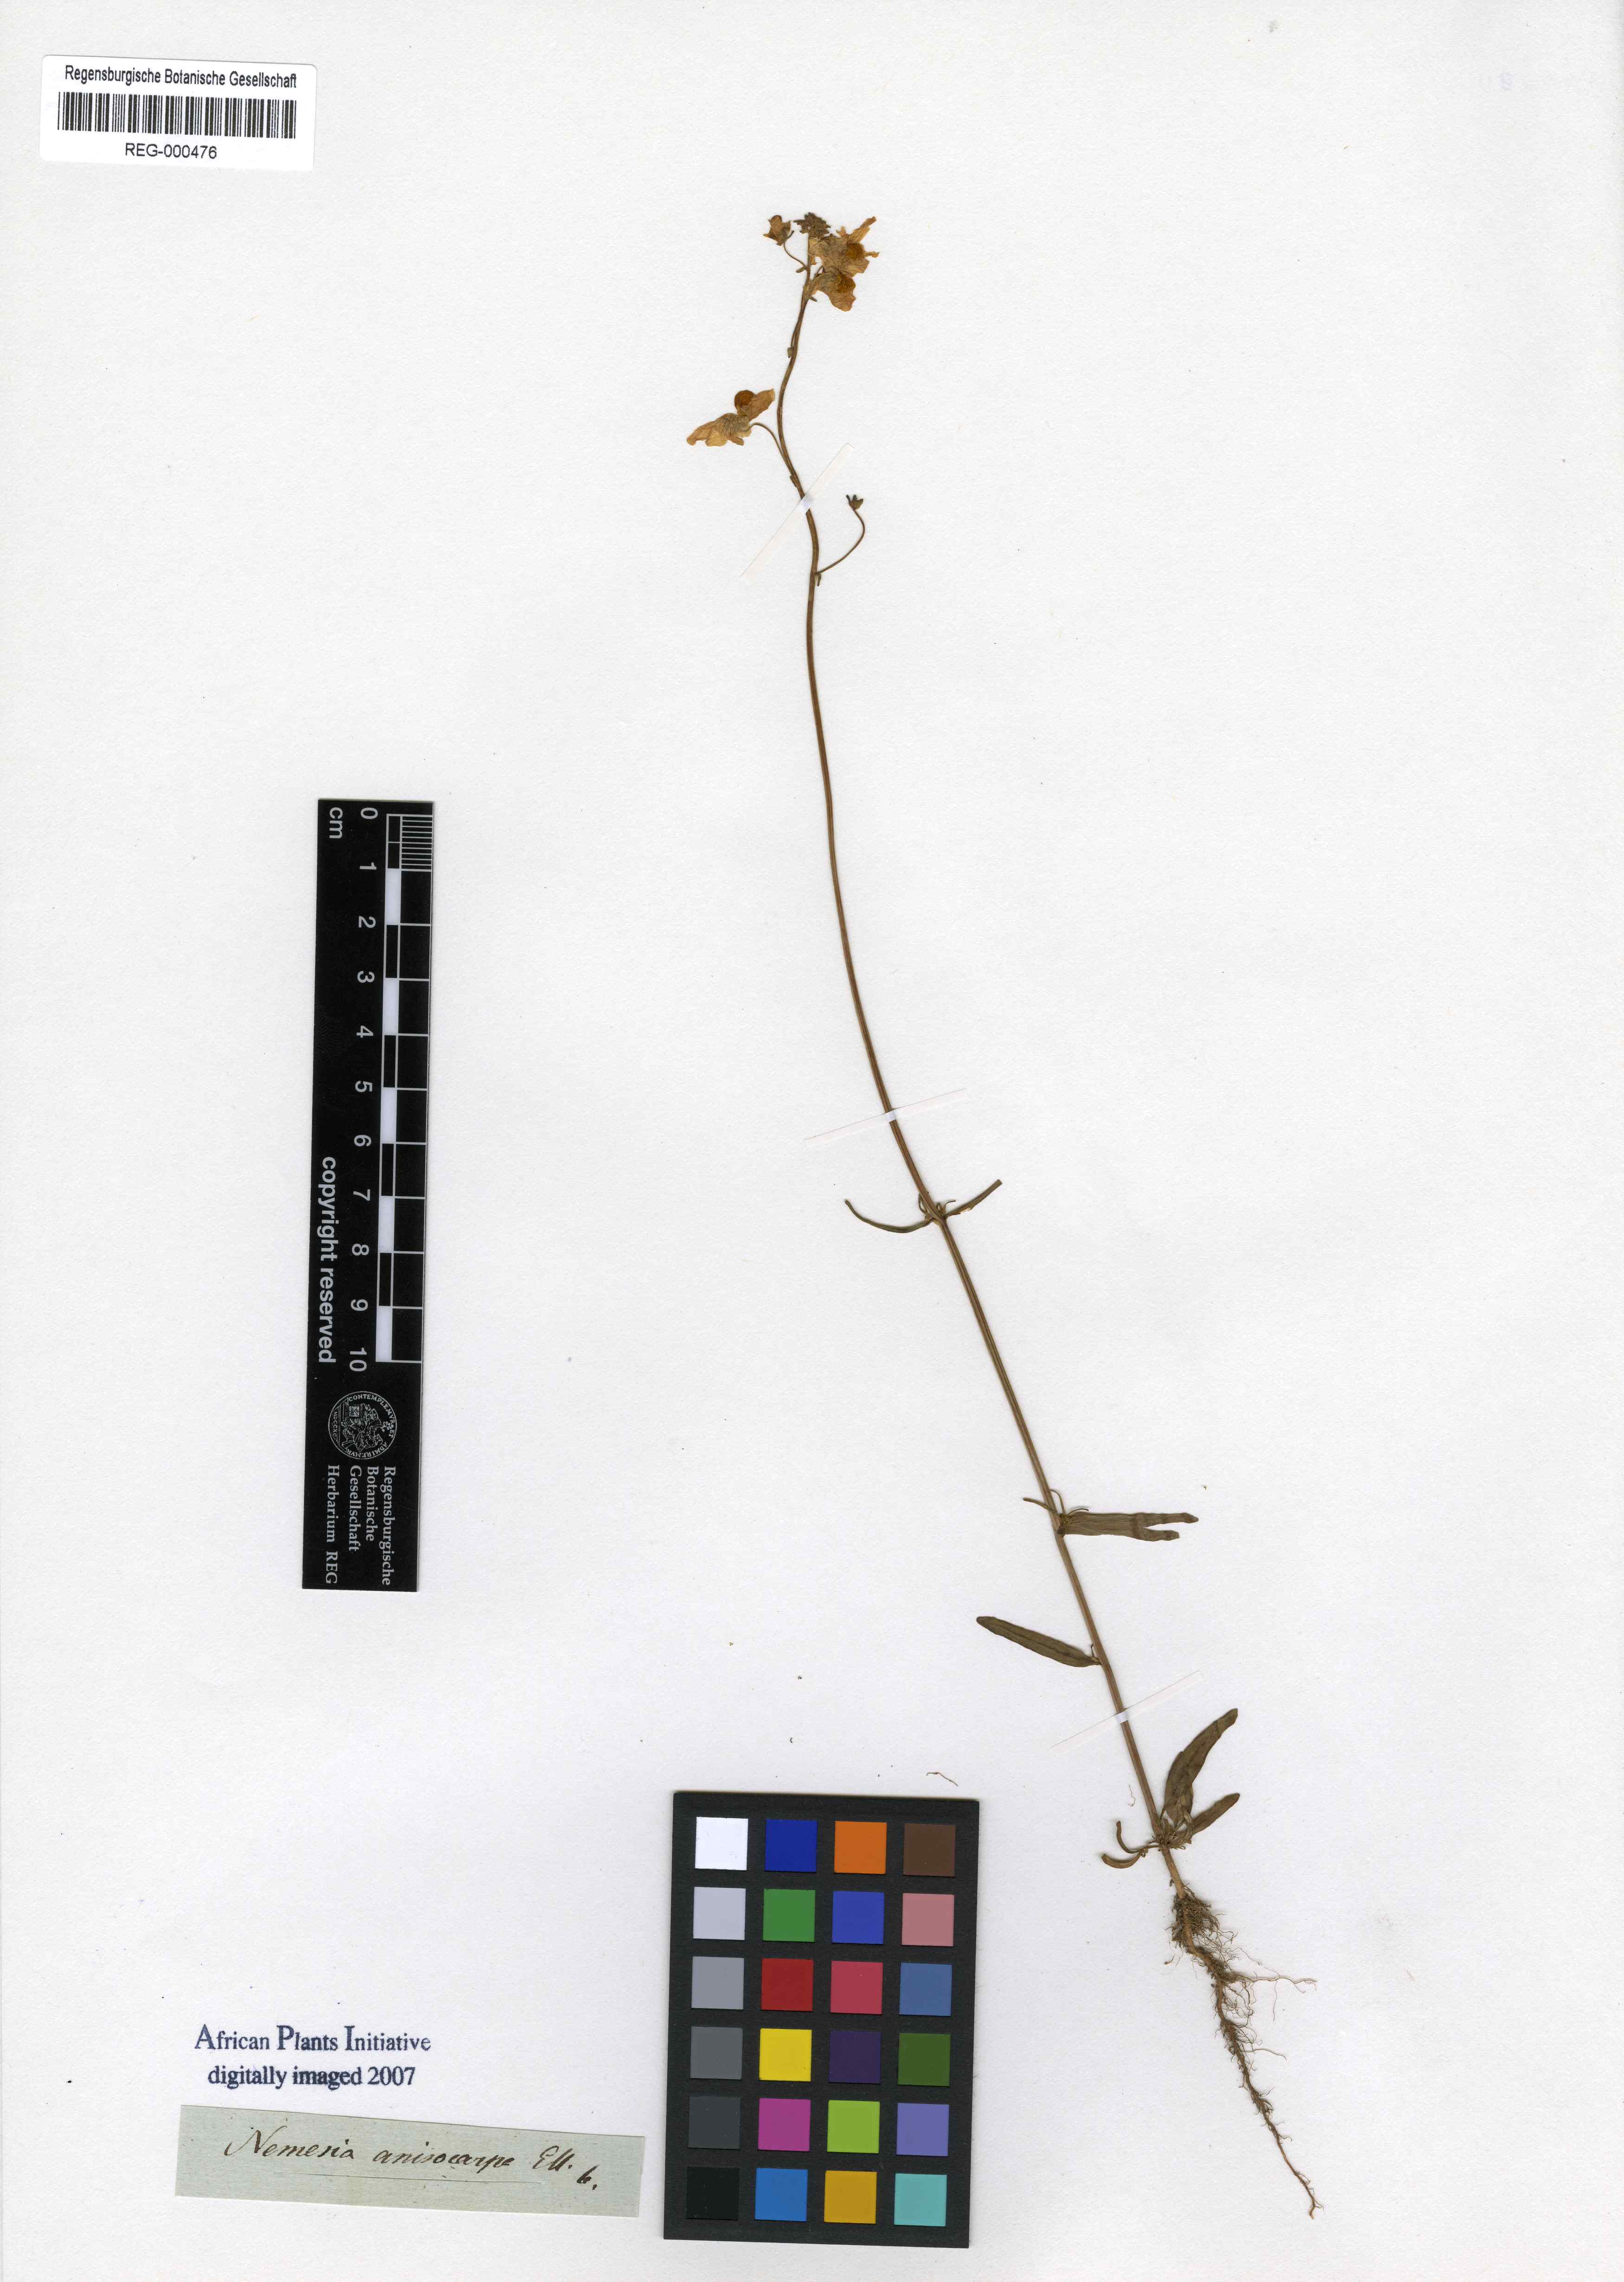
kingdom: Plantae
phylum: Tracheophyta
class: Magnoliopsida
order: Lamiales
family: Scrophulariaceae
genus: Nemesia
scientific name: Nemesia anisocarpa
